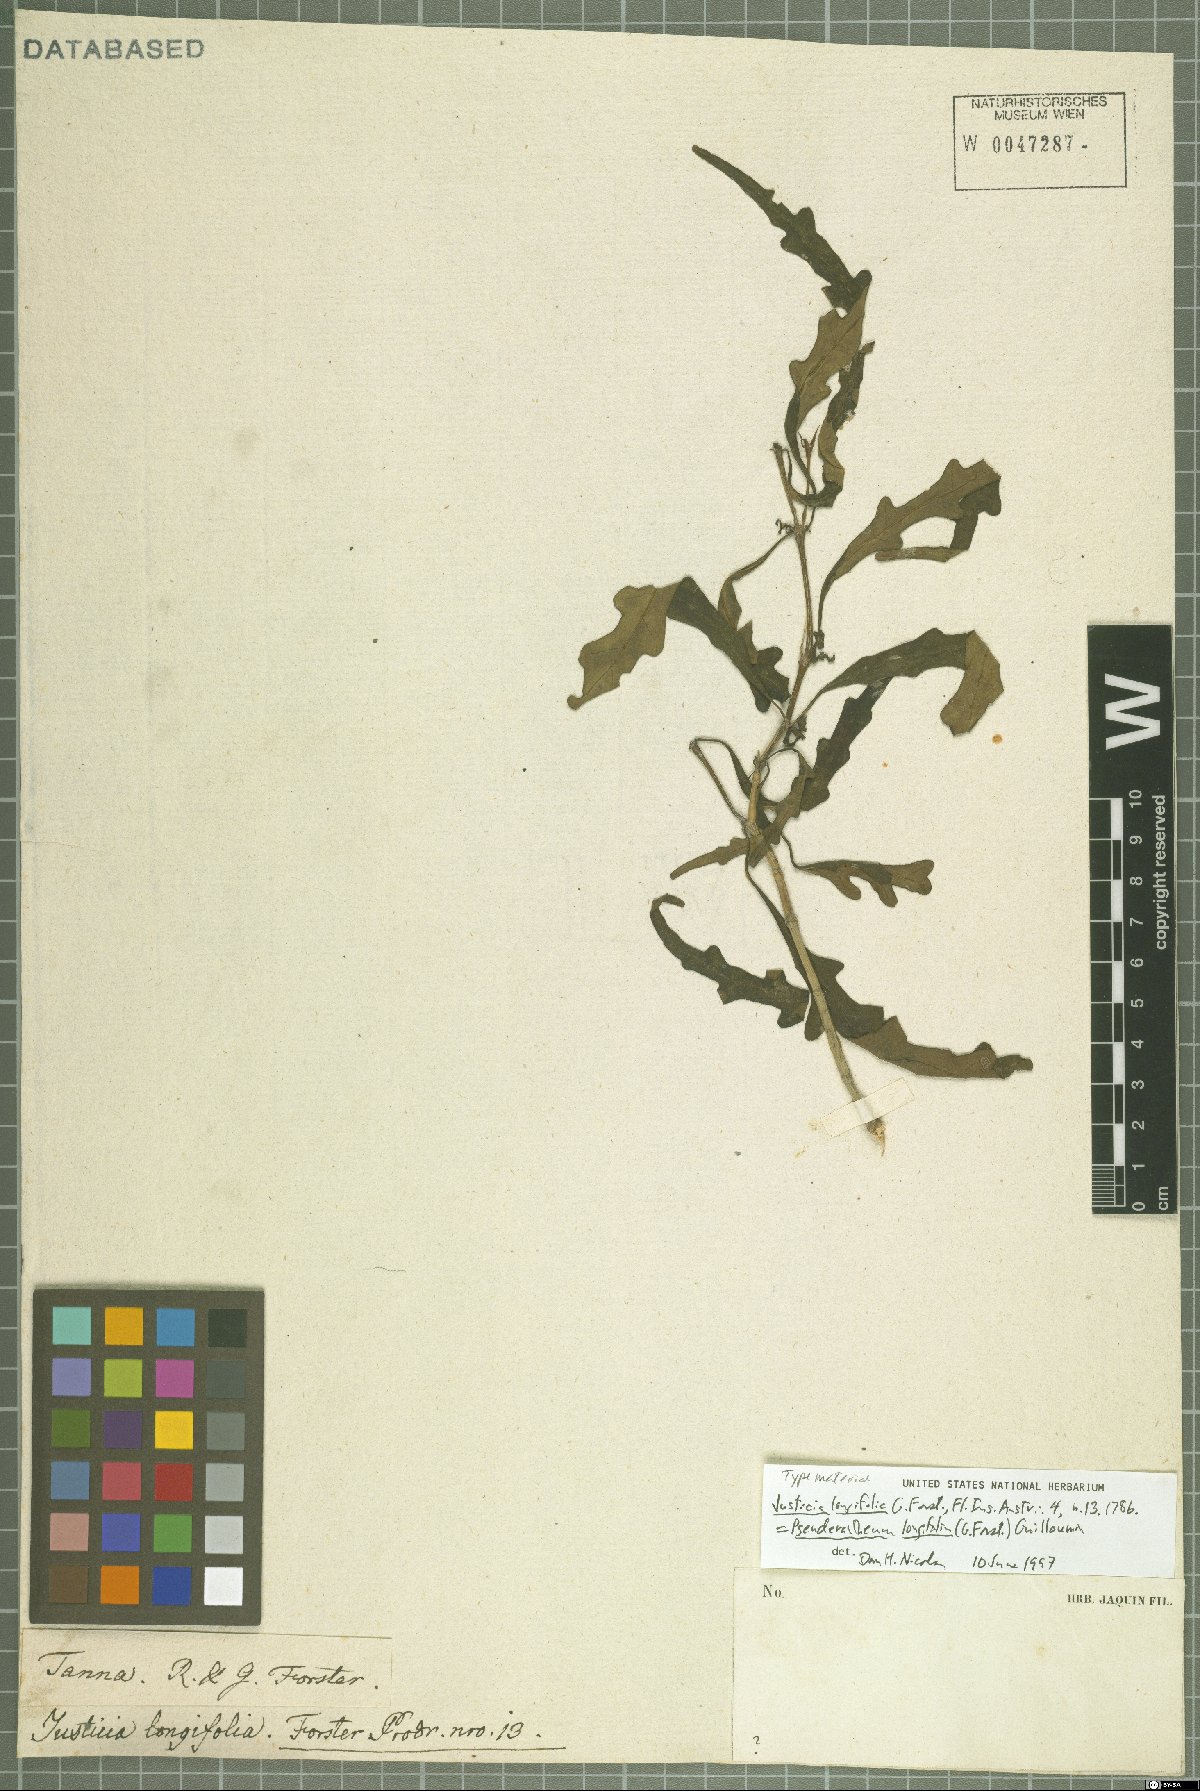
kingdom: Plantae
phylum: Tracheophyta
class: Magnoliopsida
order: Lamiales
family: Acanthaceae
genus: Pseuderanthemum
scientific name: Pseuderanthemum longifolium
